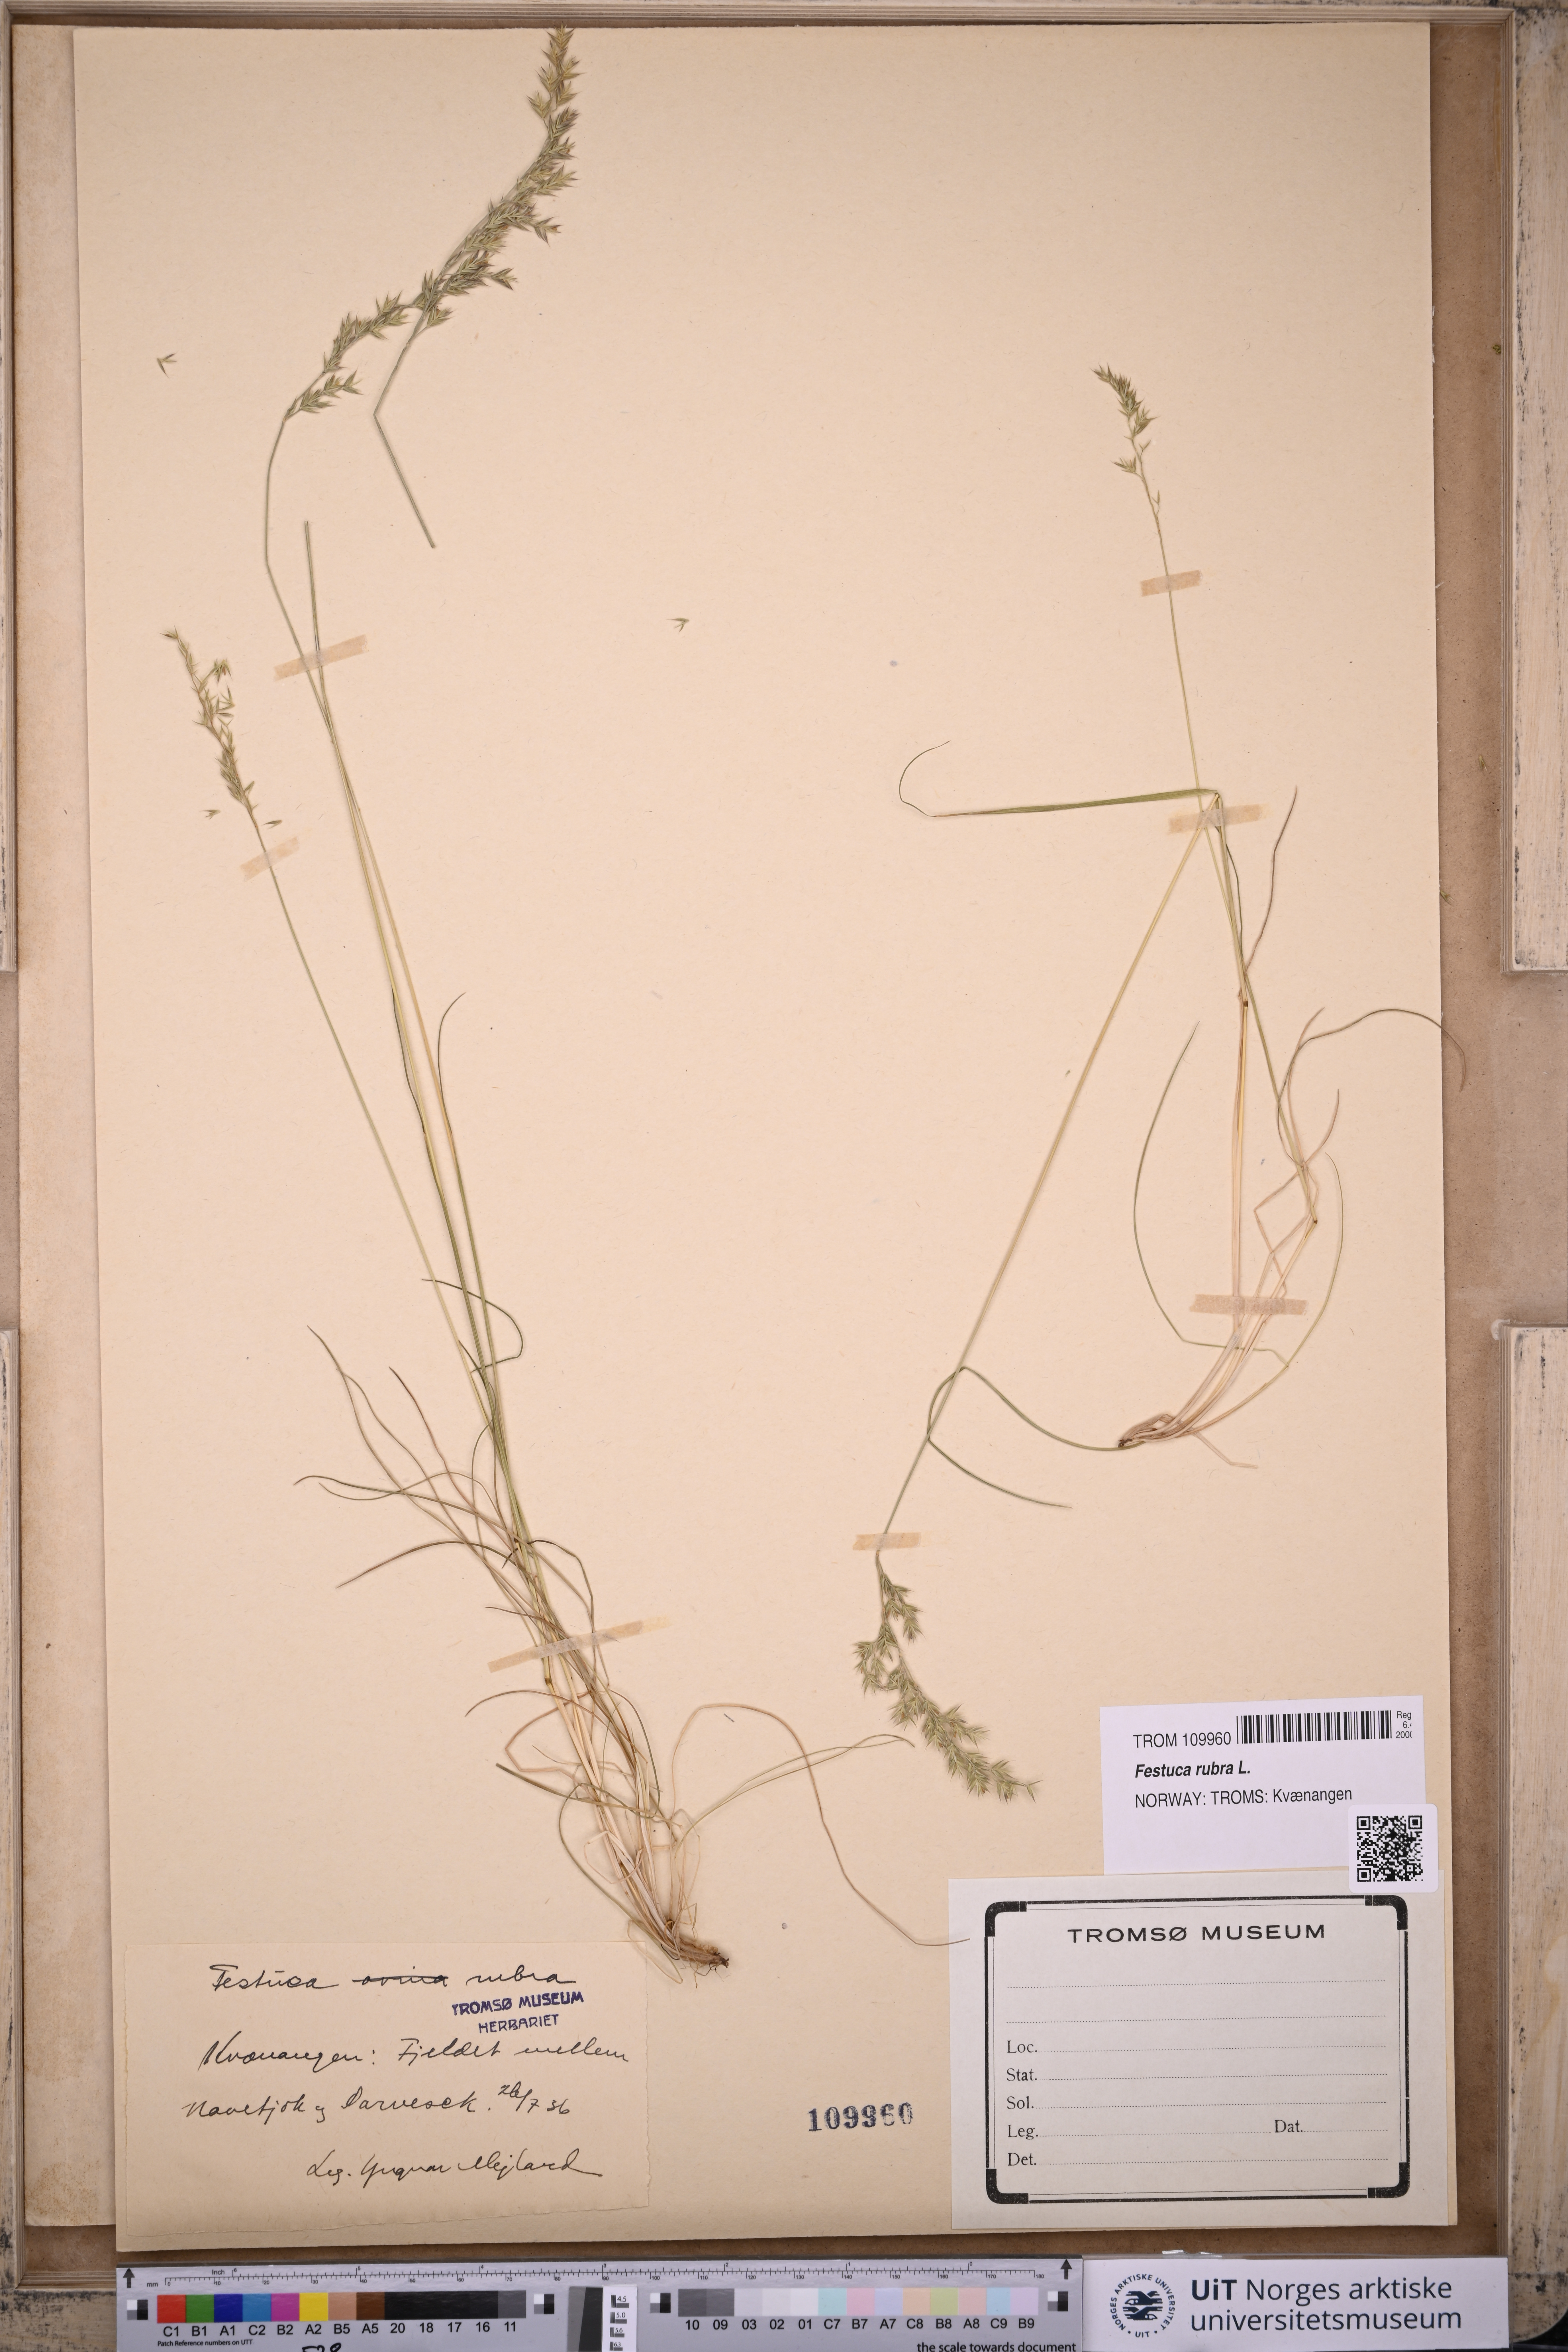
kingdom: Plantae
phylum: Tracheophyta
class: Liliopsida
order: Poales
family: Poaceae
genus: Festuca
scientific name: Festuca rubra
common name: Red fescue
